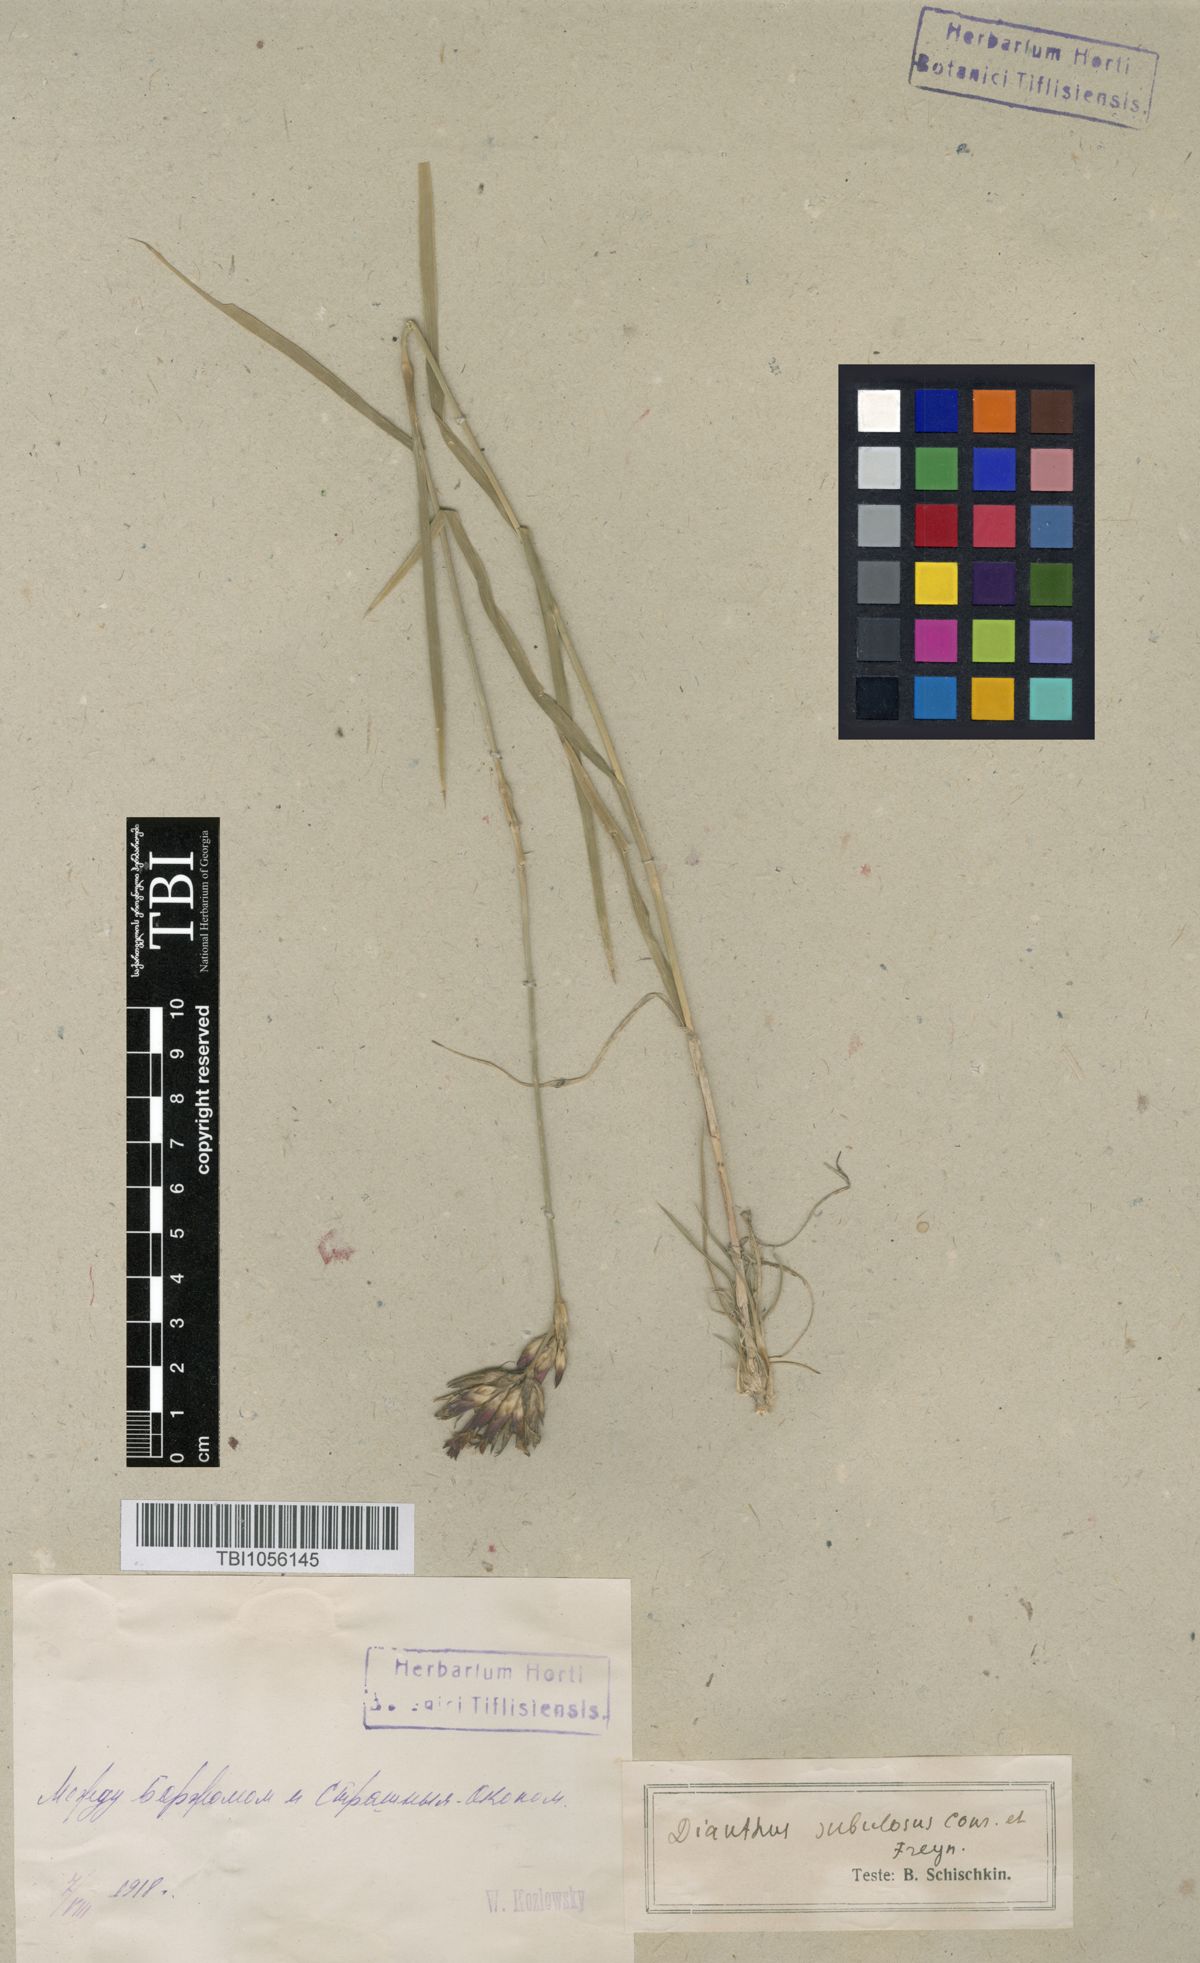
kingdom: Plantae
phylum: Tracheophyta
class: Magnoliopsida
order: Caryophyllales
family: Caryophyllaceae
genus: Dianthus
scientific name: Dianthus subulosus
